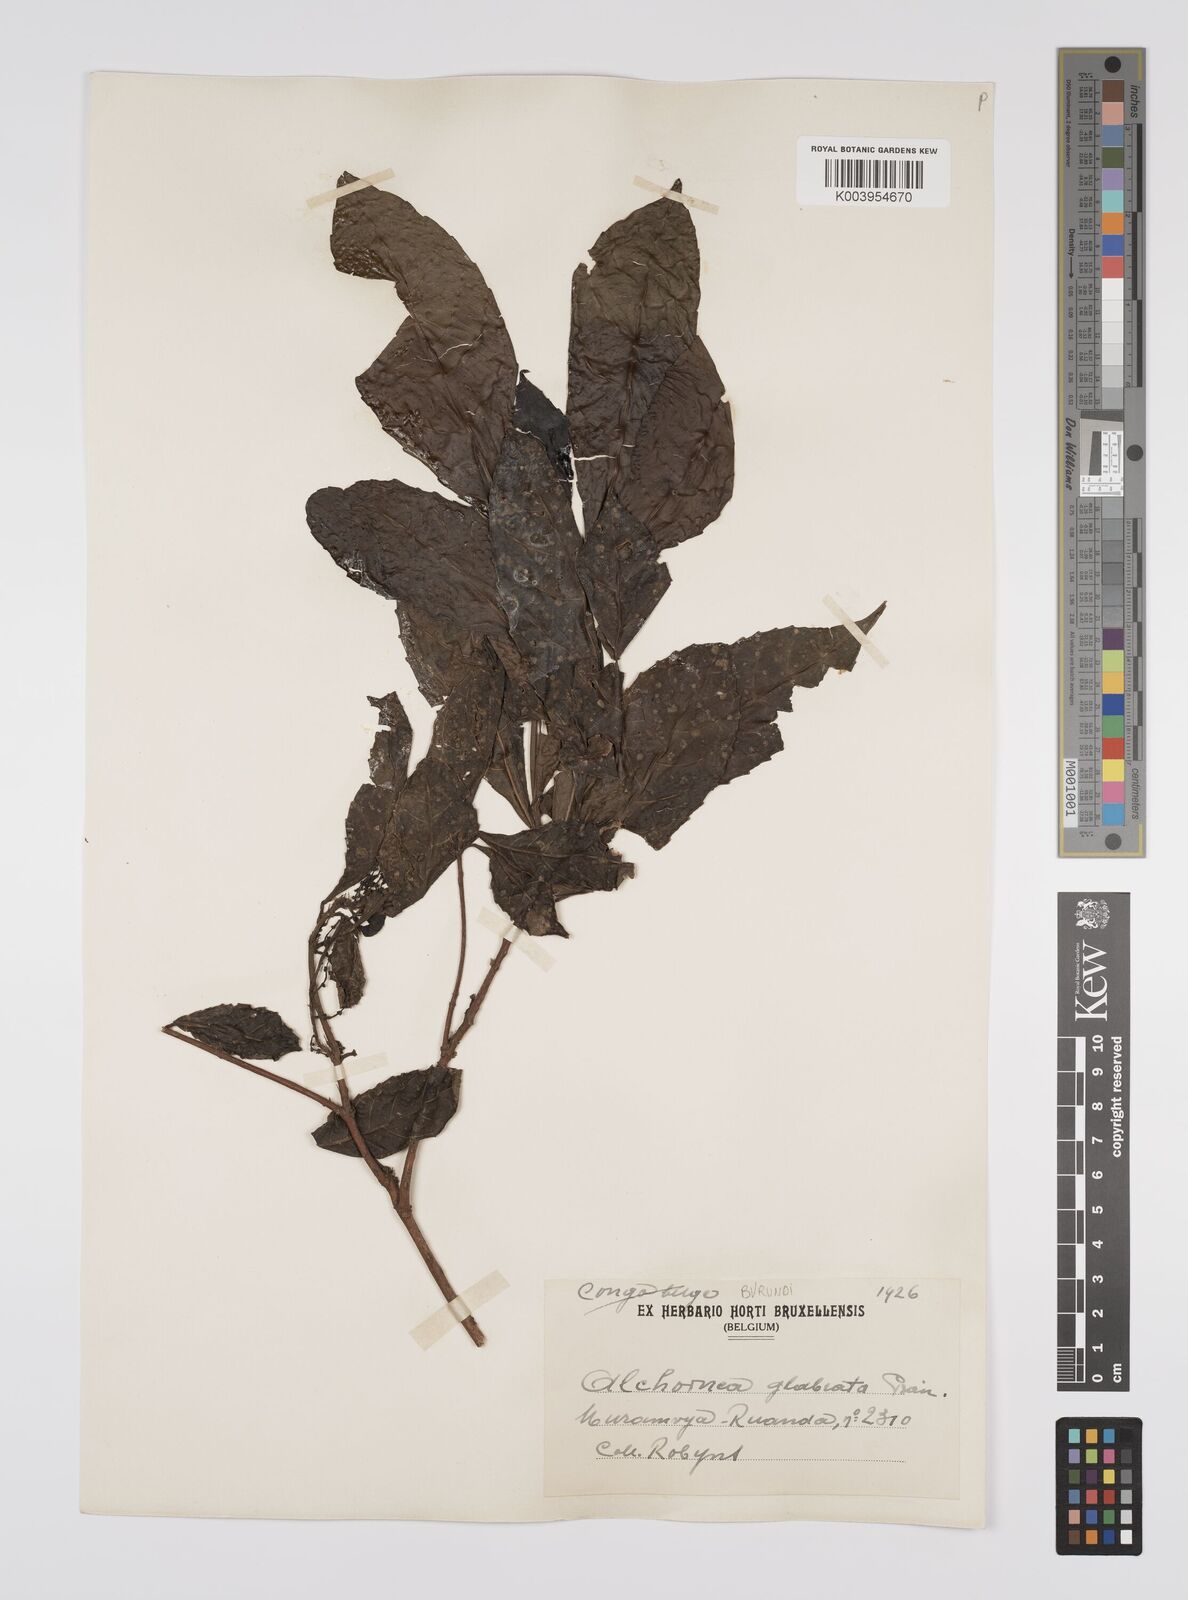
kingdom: Plantae
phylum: Tracheophyta
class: Magnoliopsida
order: Malpighiales
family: Euphorbiaceae
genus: Alchornea
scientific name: Alchornea hirtella
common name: Forest bead-string
